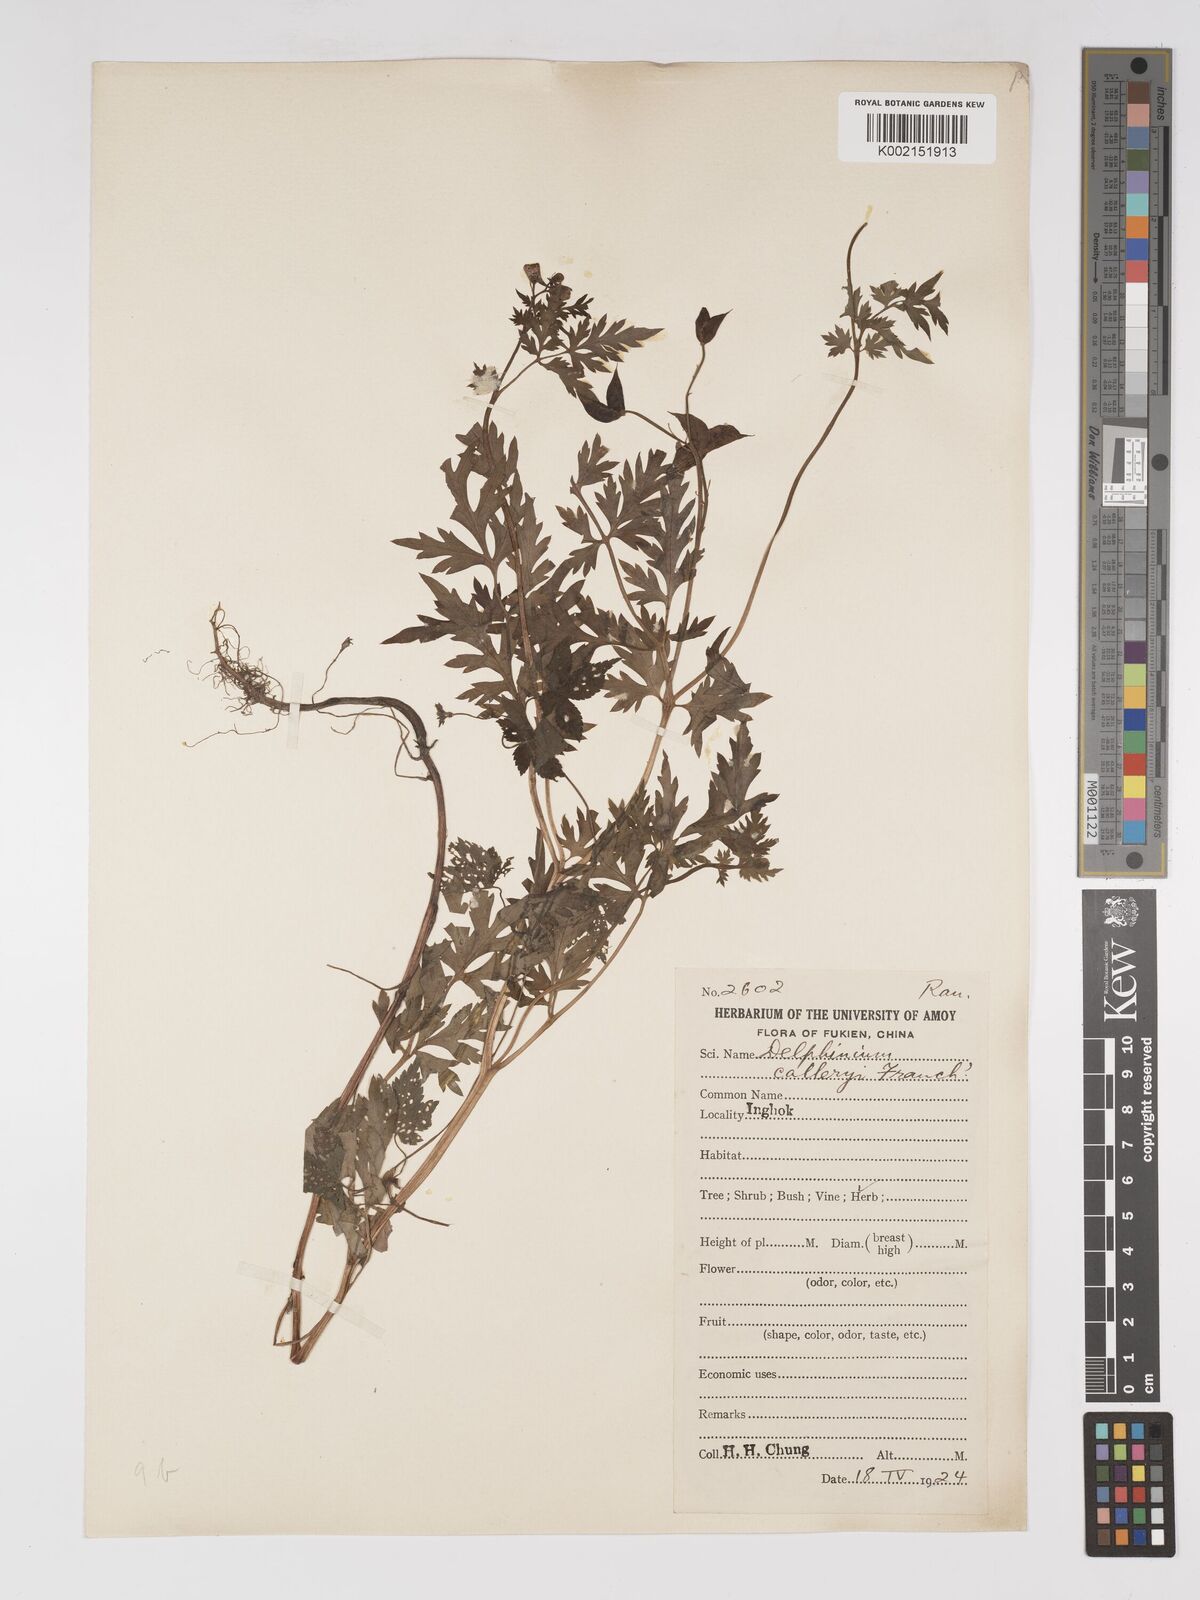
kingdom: Plantae
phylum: Tracheophyta
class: Magnoliopsida
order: Ranunculales
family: Ranunculaceae
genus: Delphinium
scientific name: Delphinium anthriscifolium
